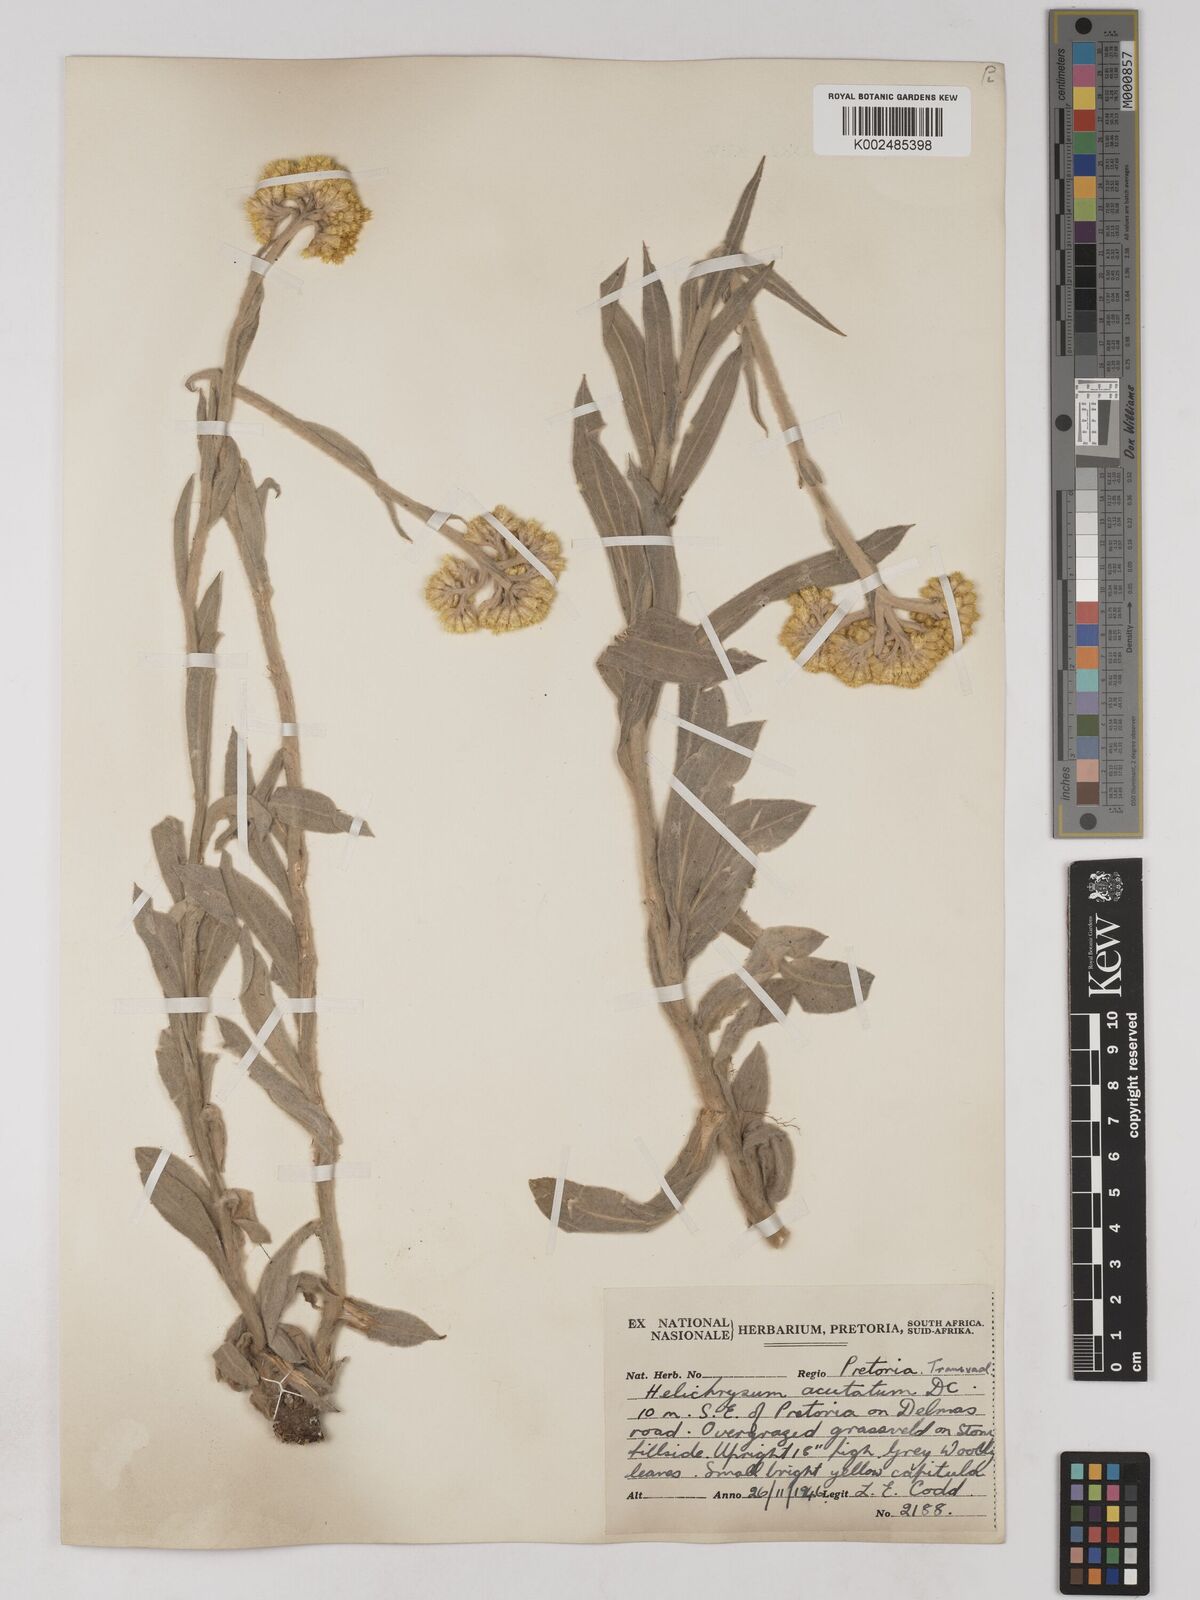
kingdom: Plantae
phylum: Tracheophyta
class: Magnoliopsida
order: Asterales
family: Asteraceae
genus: Helichrysum
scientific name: Helichrysum acutatum
